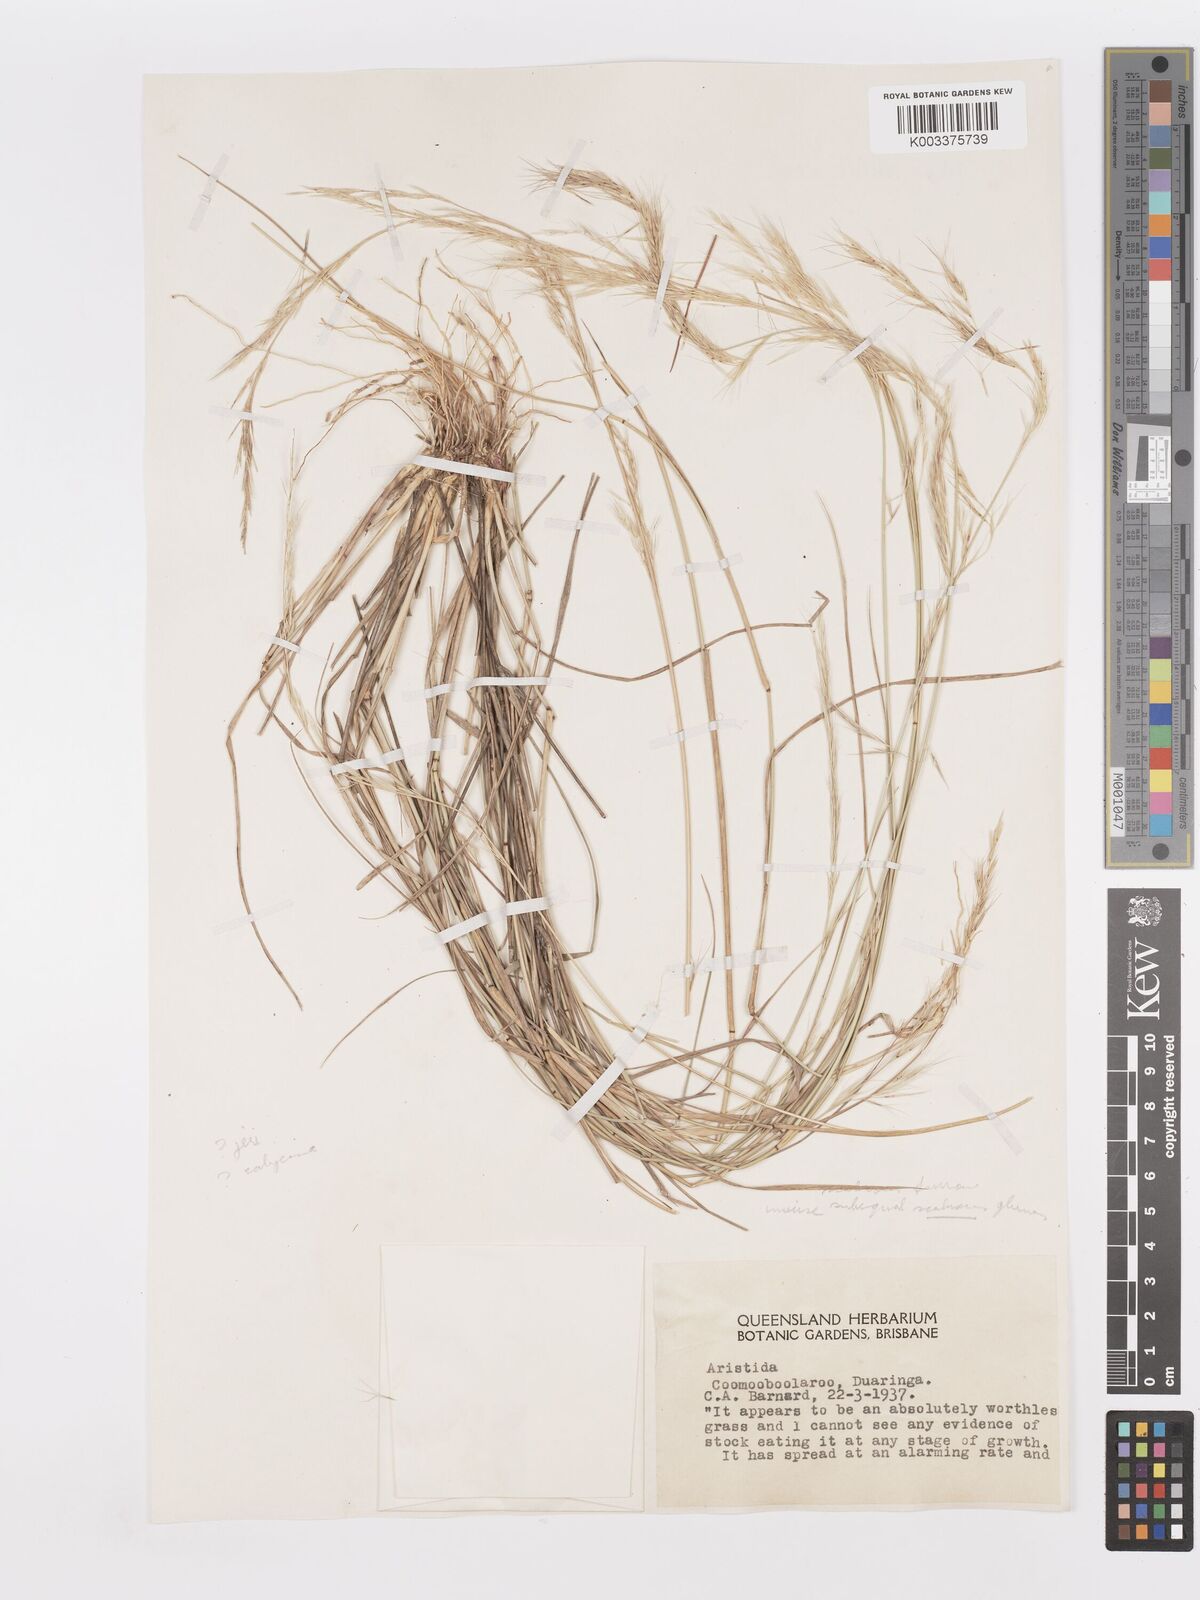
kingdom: Plantae
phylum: Tracheophyta
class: Liliopsida
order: Poales
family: Poaceae
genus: Aristida
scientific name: Aristida
